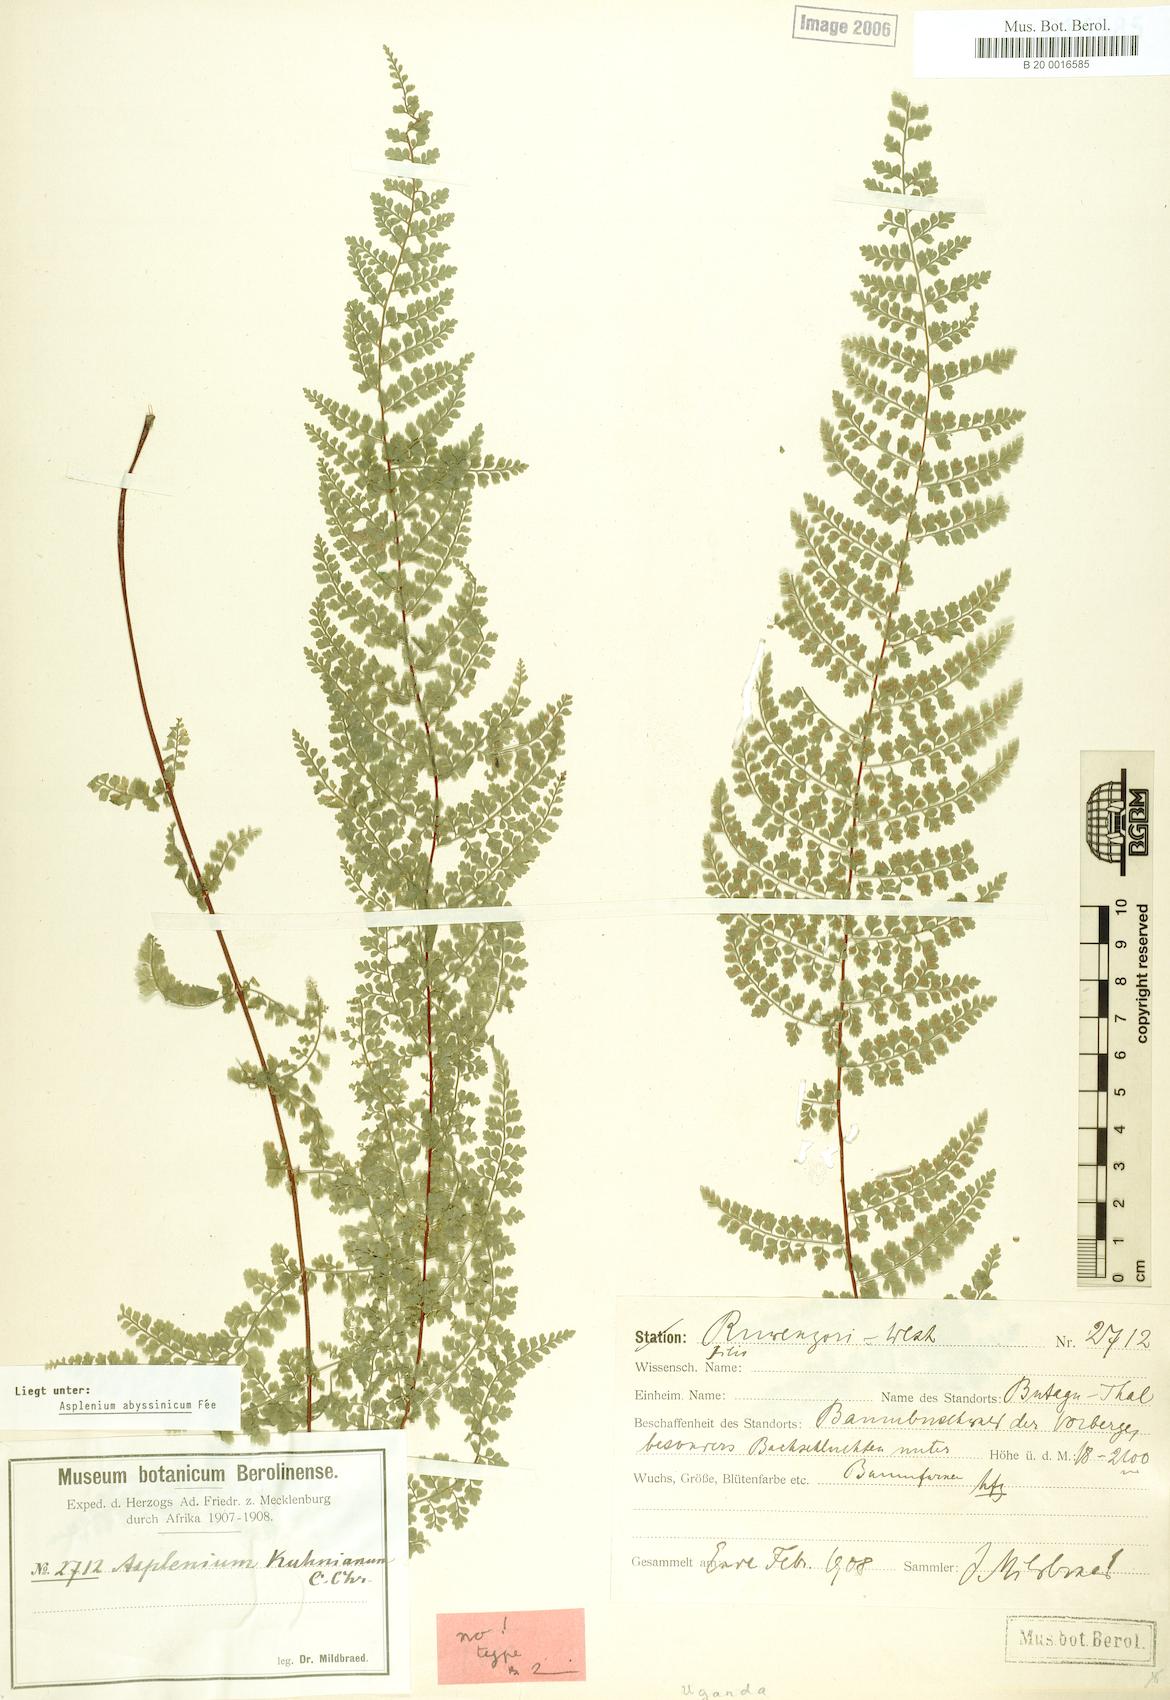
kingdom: Plantae
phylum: Tracheophyta
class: Polypodiopsida
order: Polypodiales
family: Aspleniaceae
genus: Asplenium
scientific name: Asplenium abyssinicum
